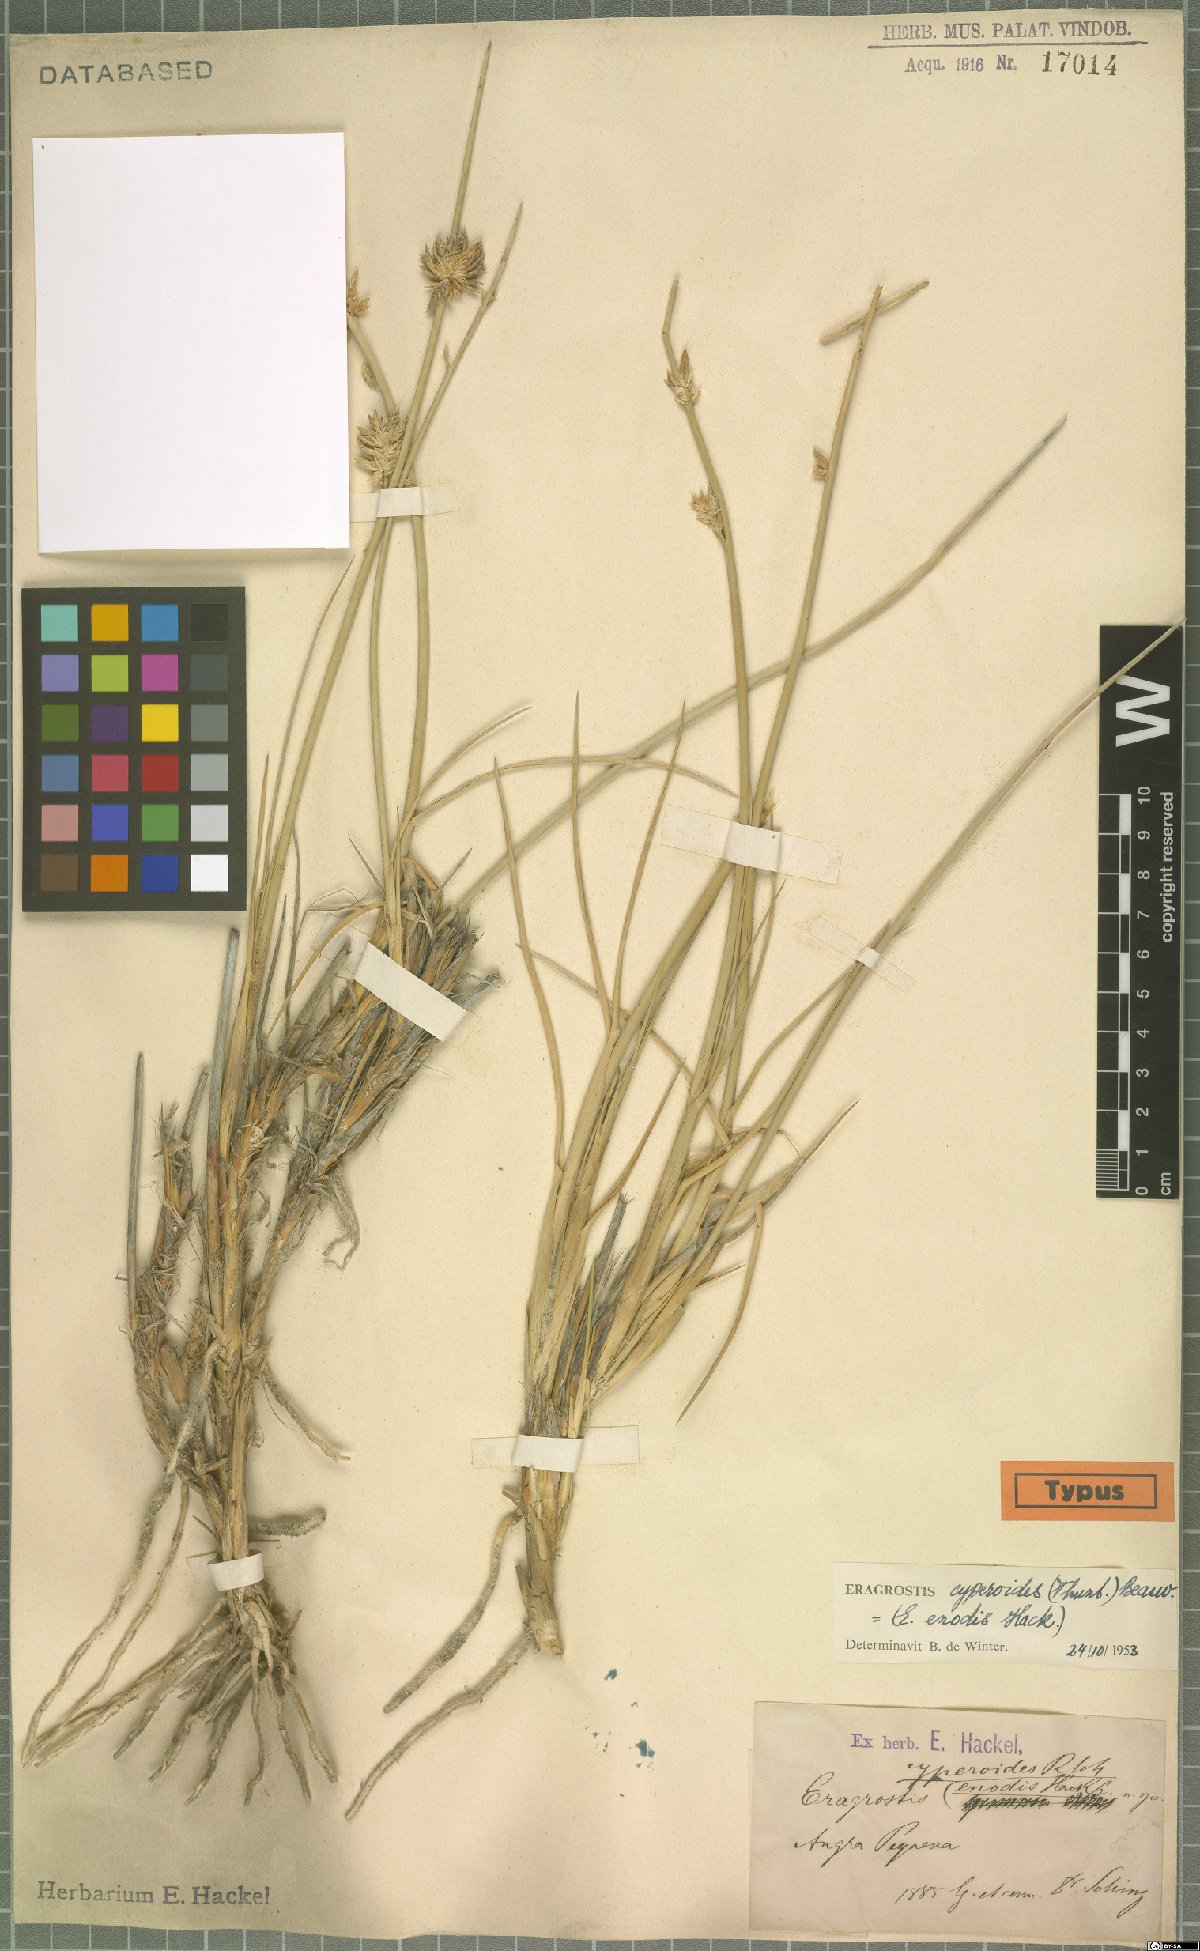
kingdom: Plantae
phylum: Tracheophyta
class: Liliopsida
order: Poales
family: Poaceae
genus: Cladoraphis
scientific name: Cladoraphis cyperoides
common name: Bristly lovegrass
